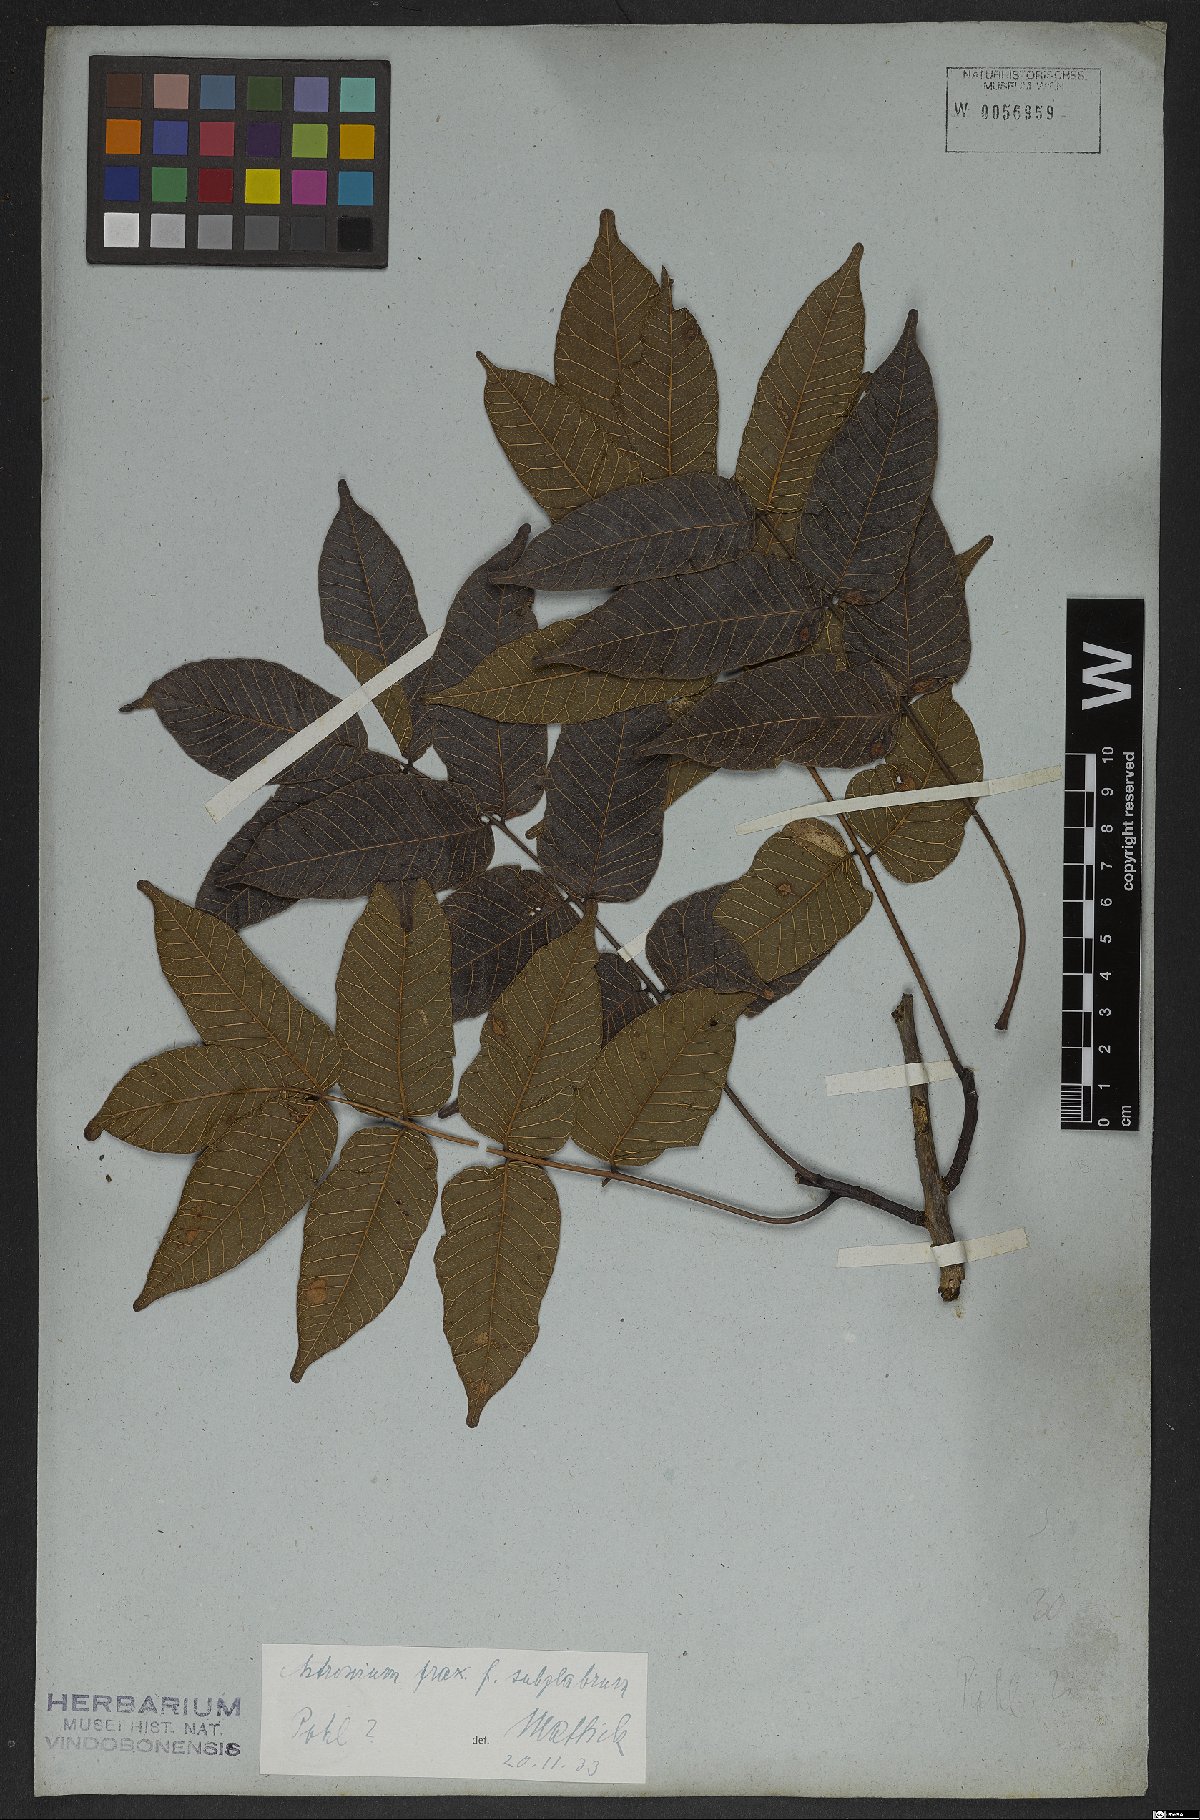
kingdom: Plantae
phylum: Tracheophyta
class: Magnoliopsida
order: Sapindales
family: Anacardiaceae
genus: Astronium
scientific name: Astronium fraxinifolium
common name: Tigerwood
